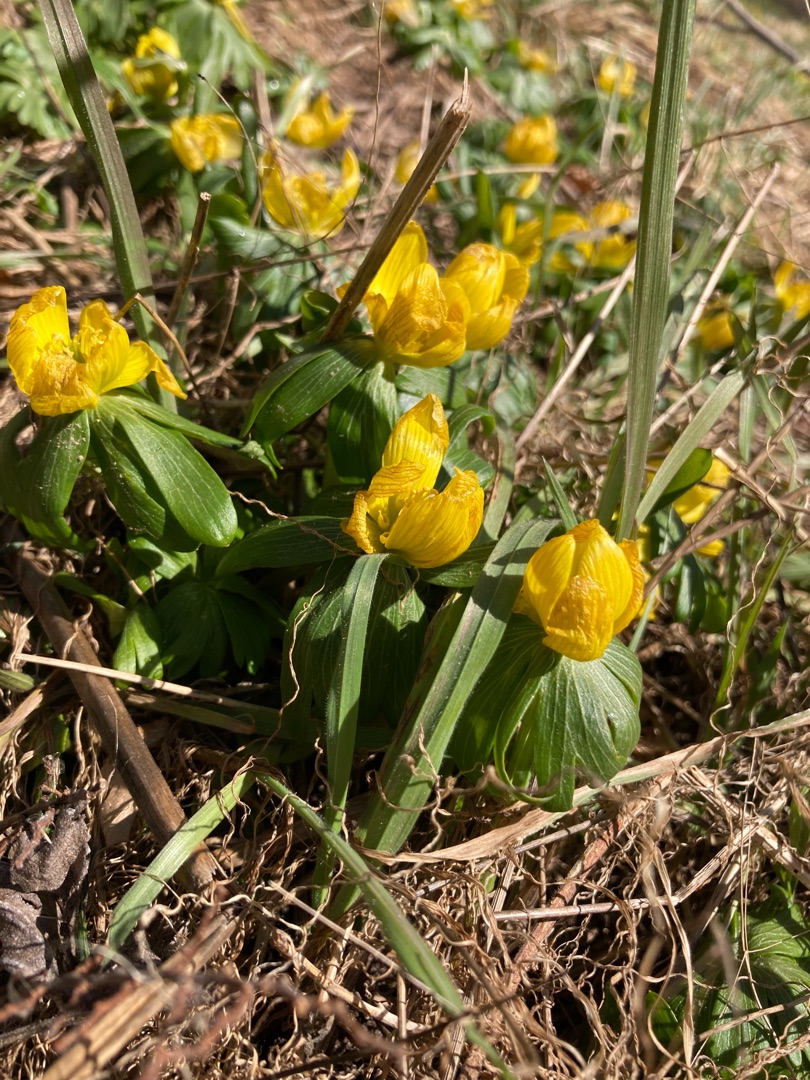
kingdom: Plantae
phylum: Tracheophyta
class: Magnoliopsida
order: Ranunculales
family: Ranunculaceae
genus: Eranthis
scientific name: Eranthis hyemalis
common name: Erantis
